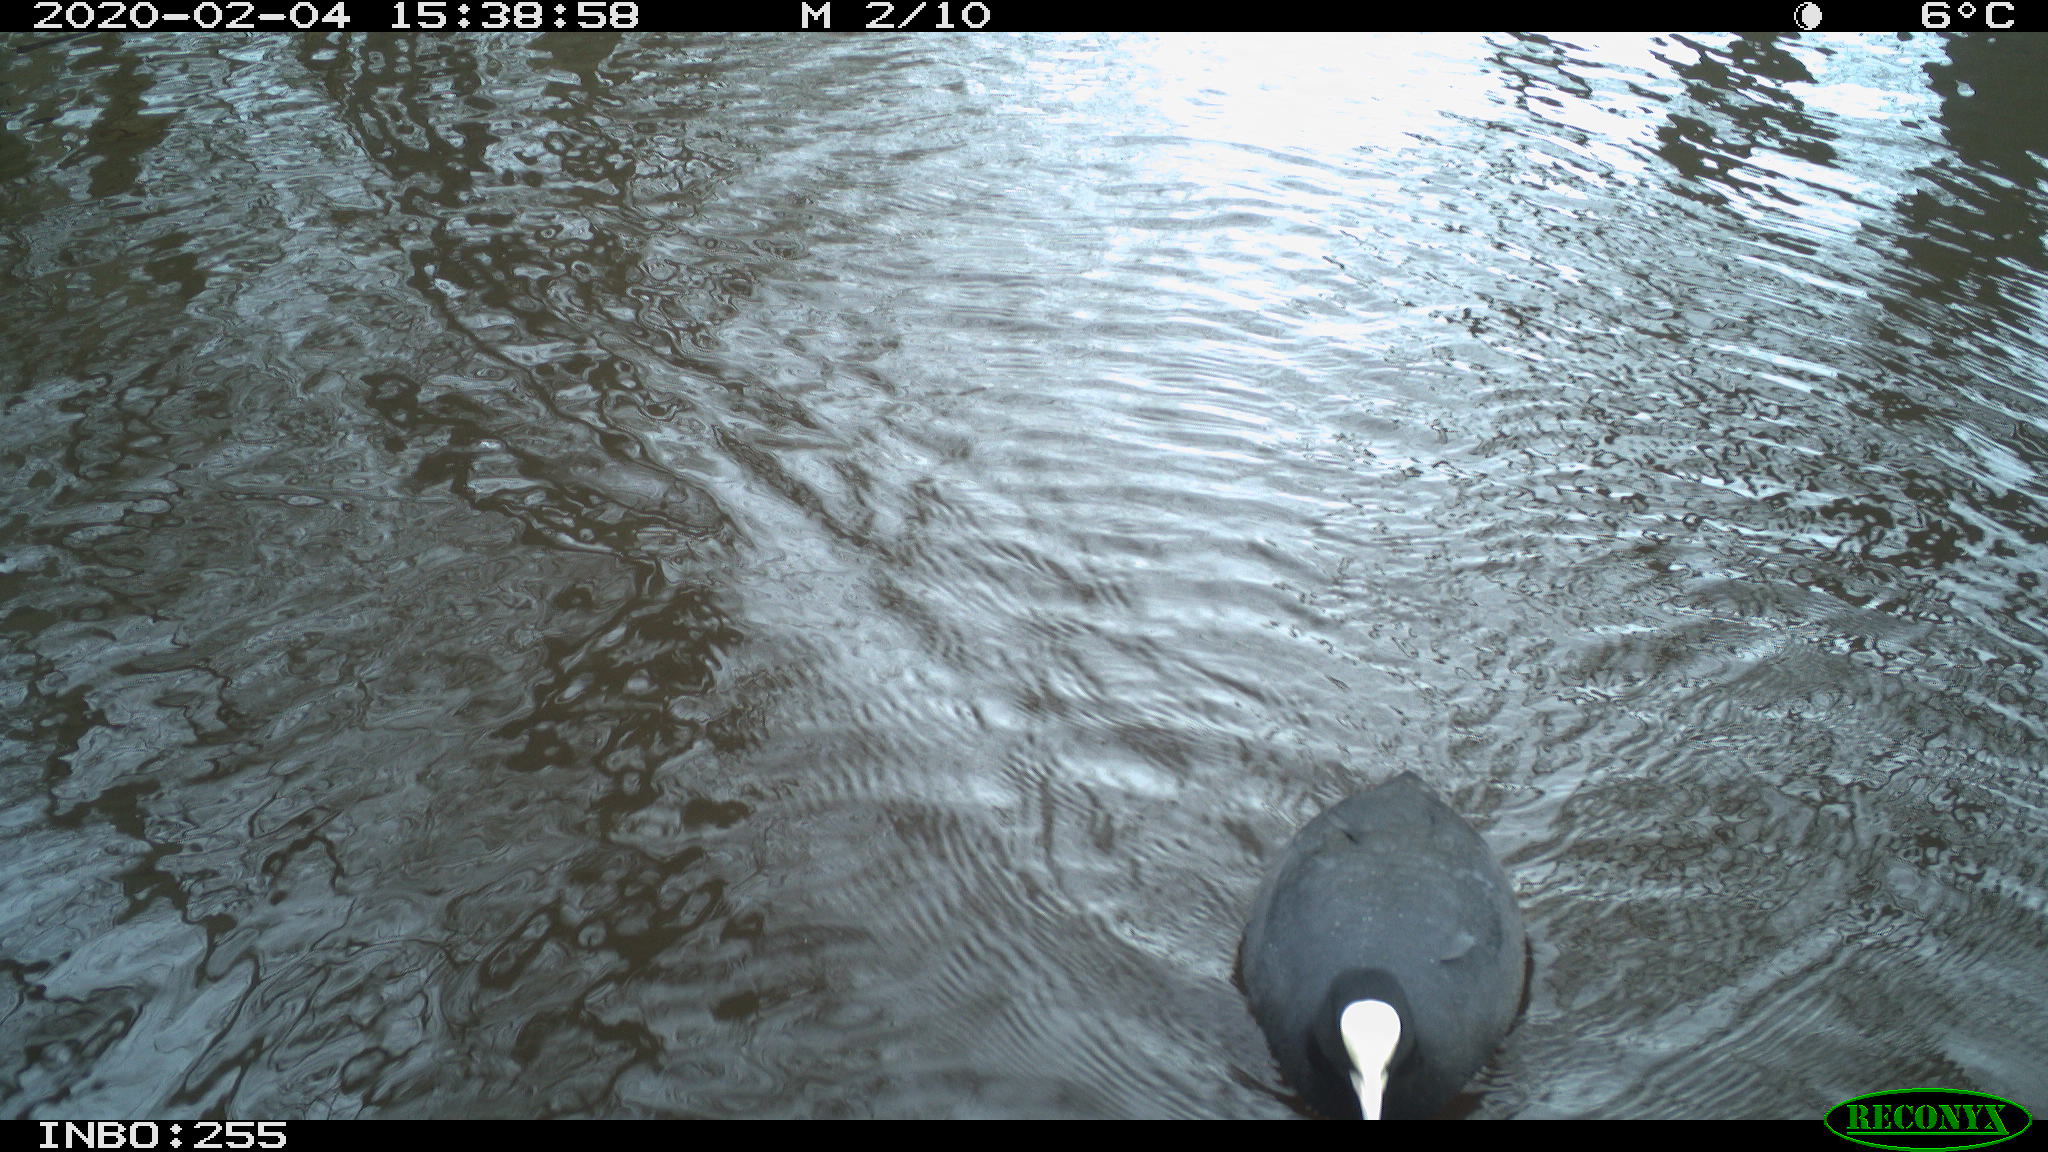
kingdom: Animalia
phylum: Chordata
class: Aves
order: Gruiformes
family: Rallidae
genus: Fulica
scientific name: Fulica atra
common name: Eurasian coot
